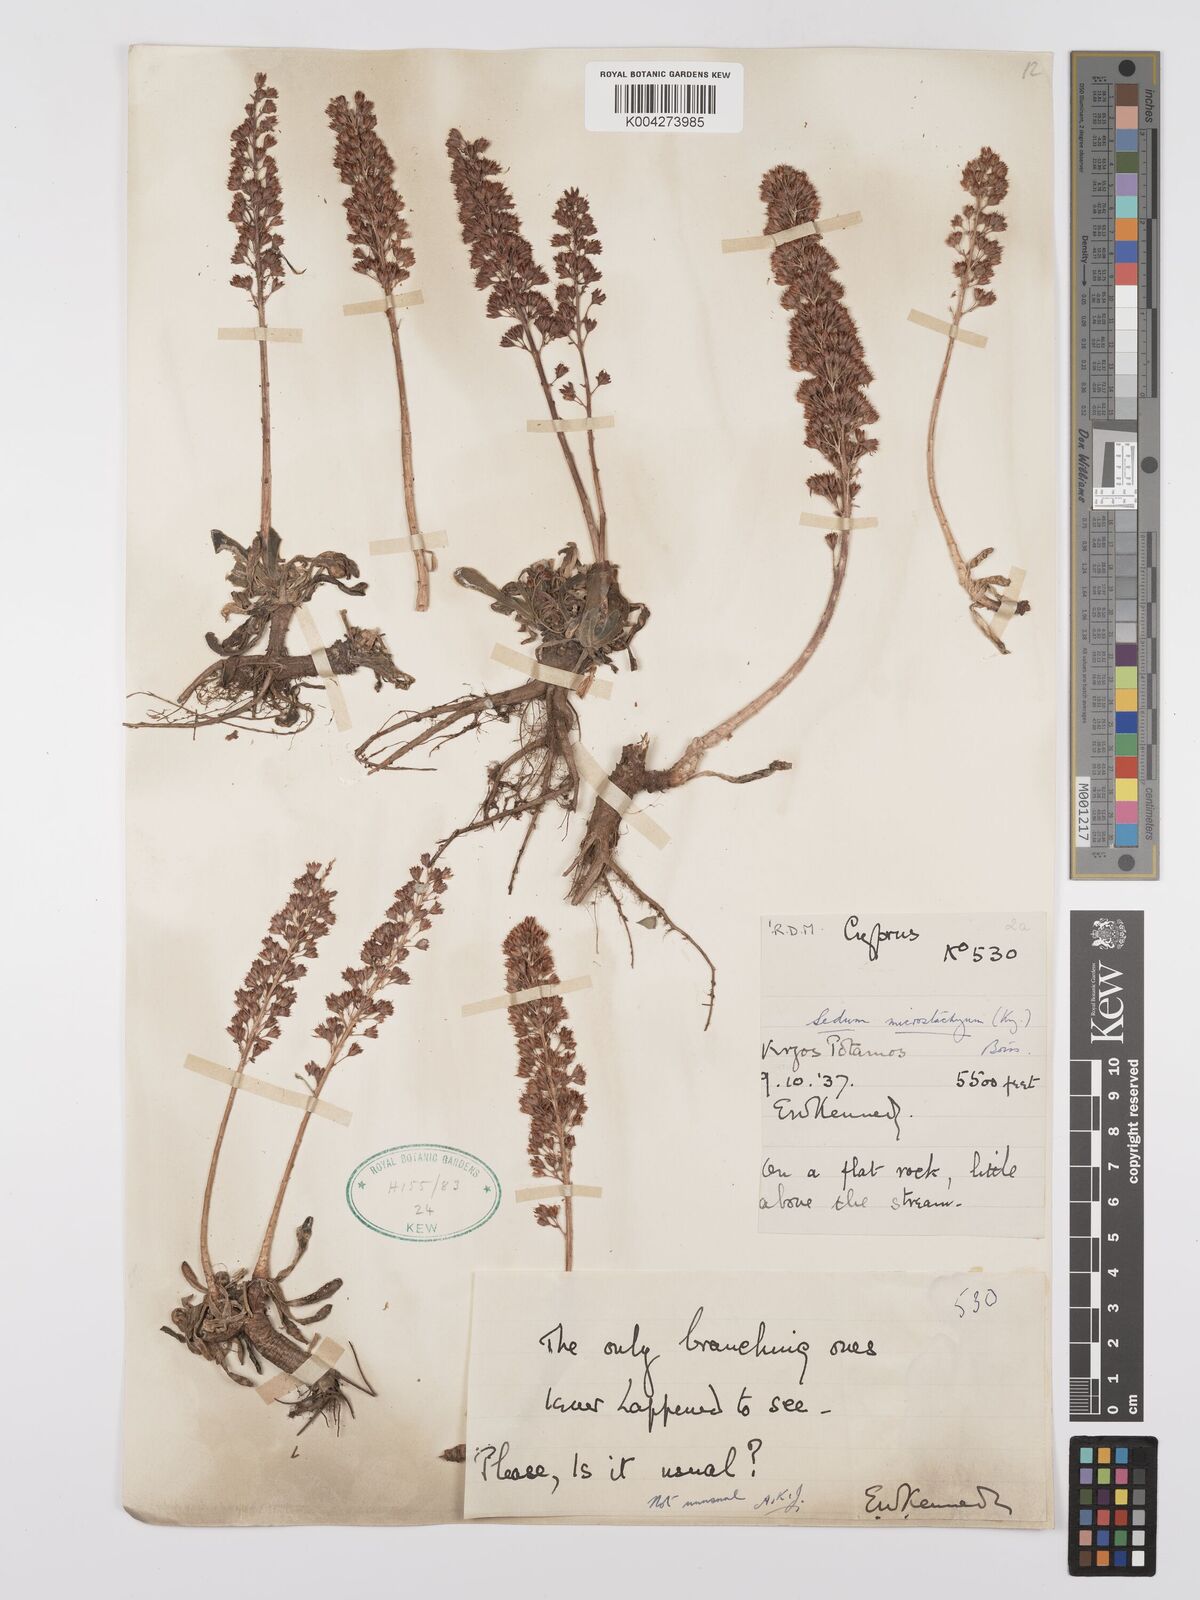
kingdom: Plantae
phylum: Tracheophyta
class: Magnoliopsida
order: Saxifragales
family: Crassulaceae
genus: Sedum
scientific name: Sedum microstachyum
